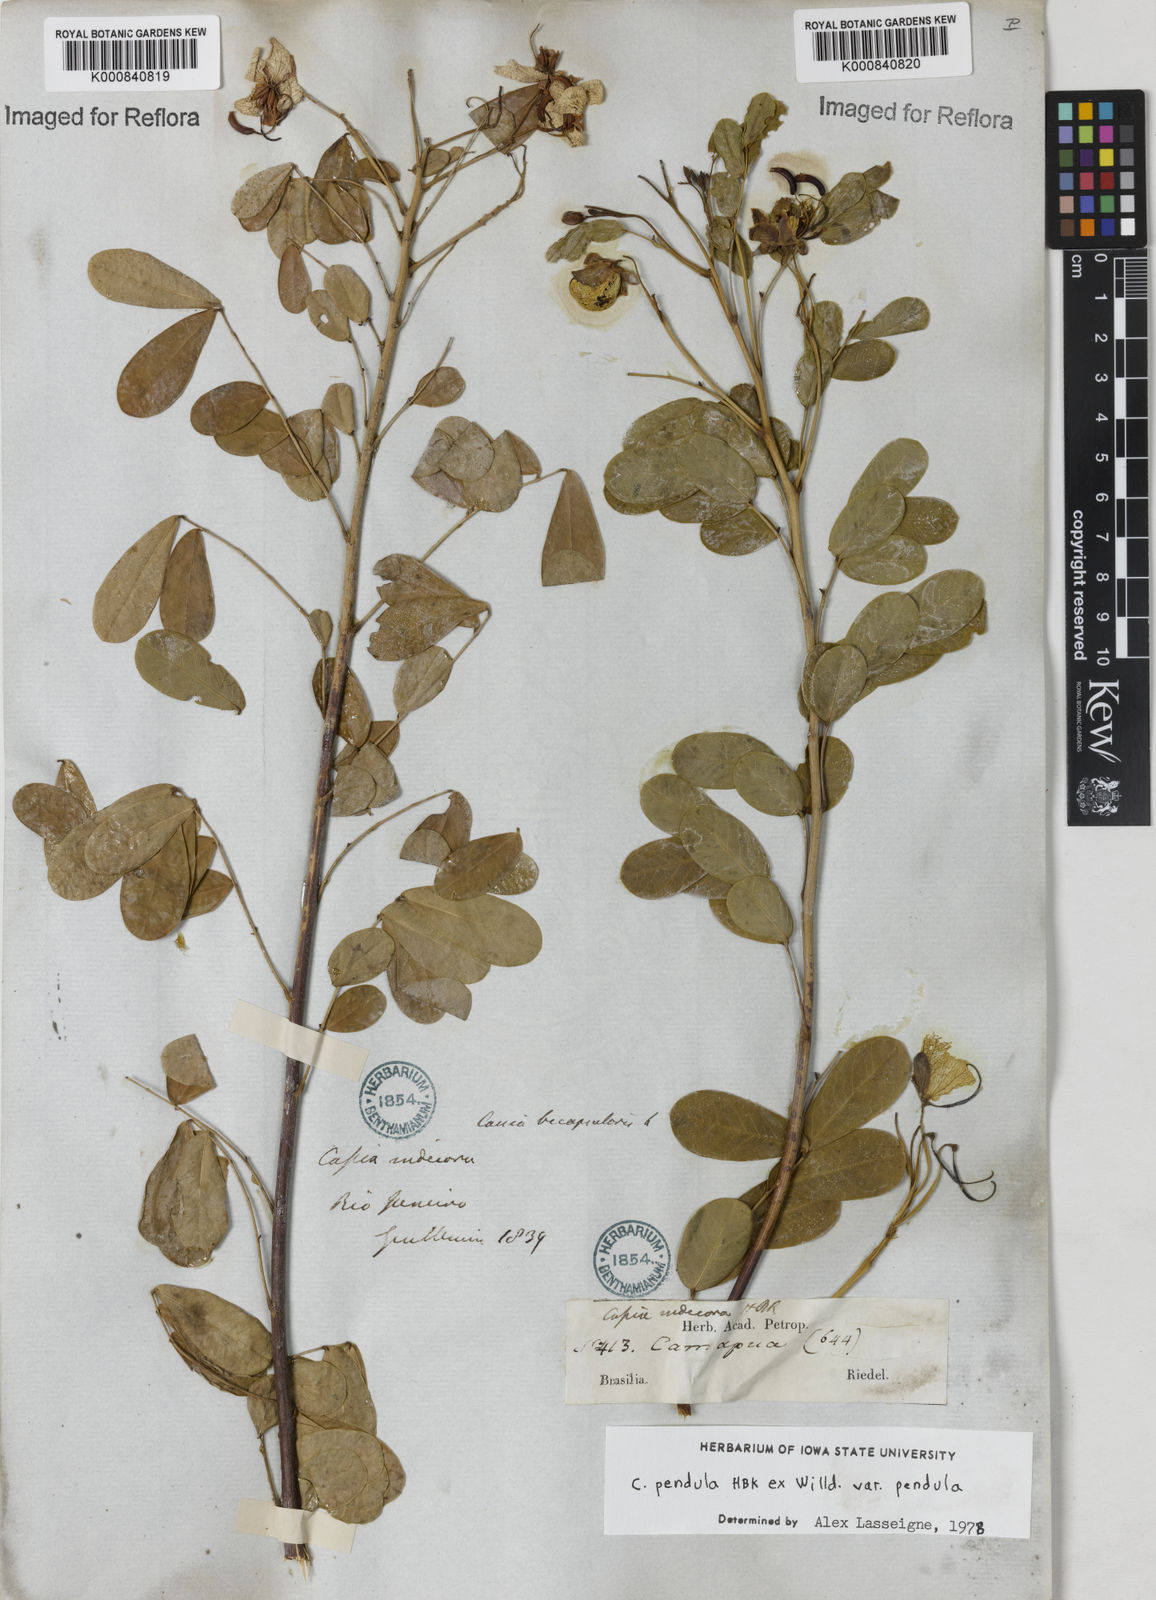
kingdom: Plantae
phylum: Tracheophyta
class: Magnoliopsida
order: Fabales
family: Fabaceae
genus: Senna
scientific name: Senna pendula
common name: Easter cassia
